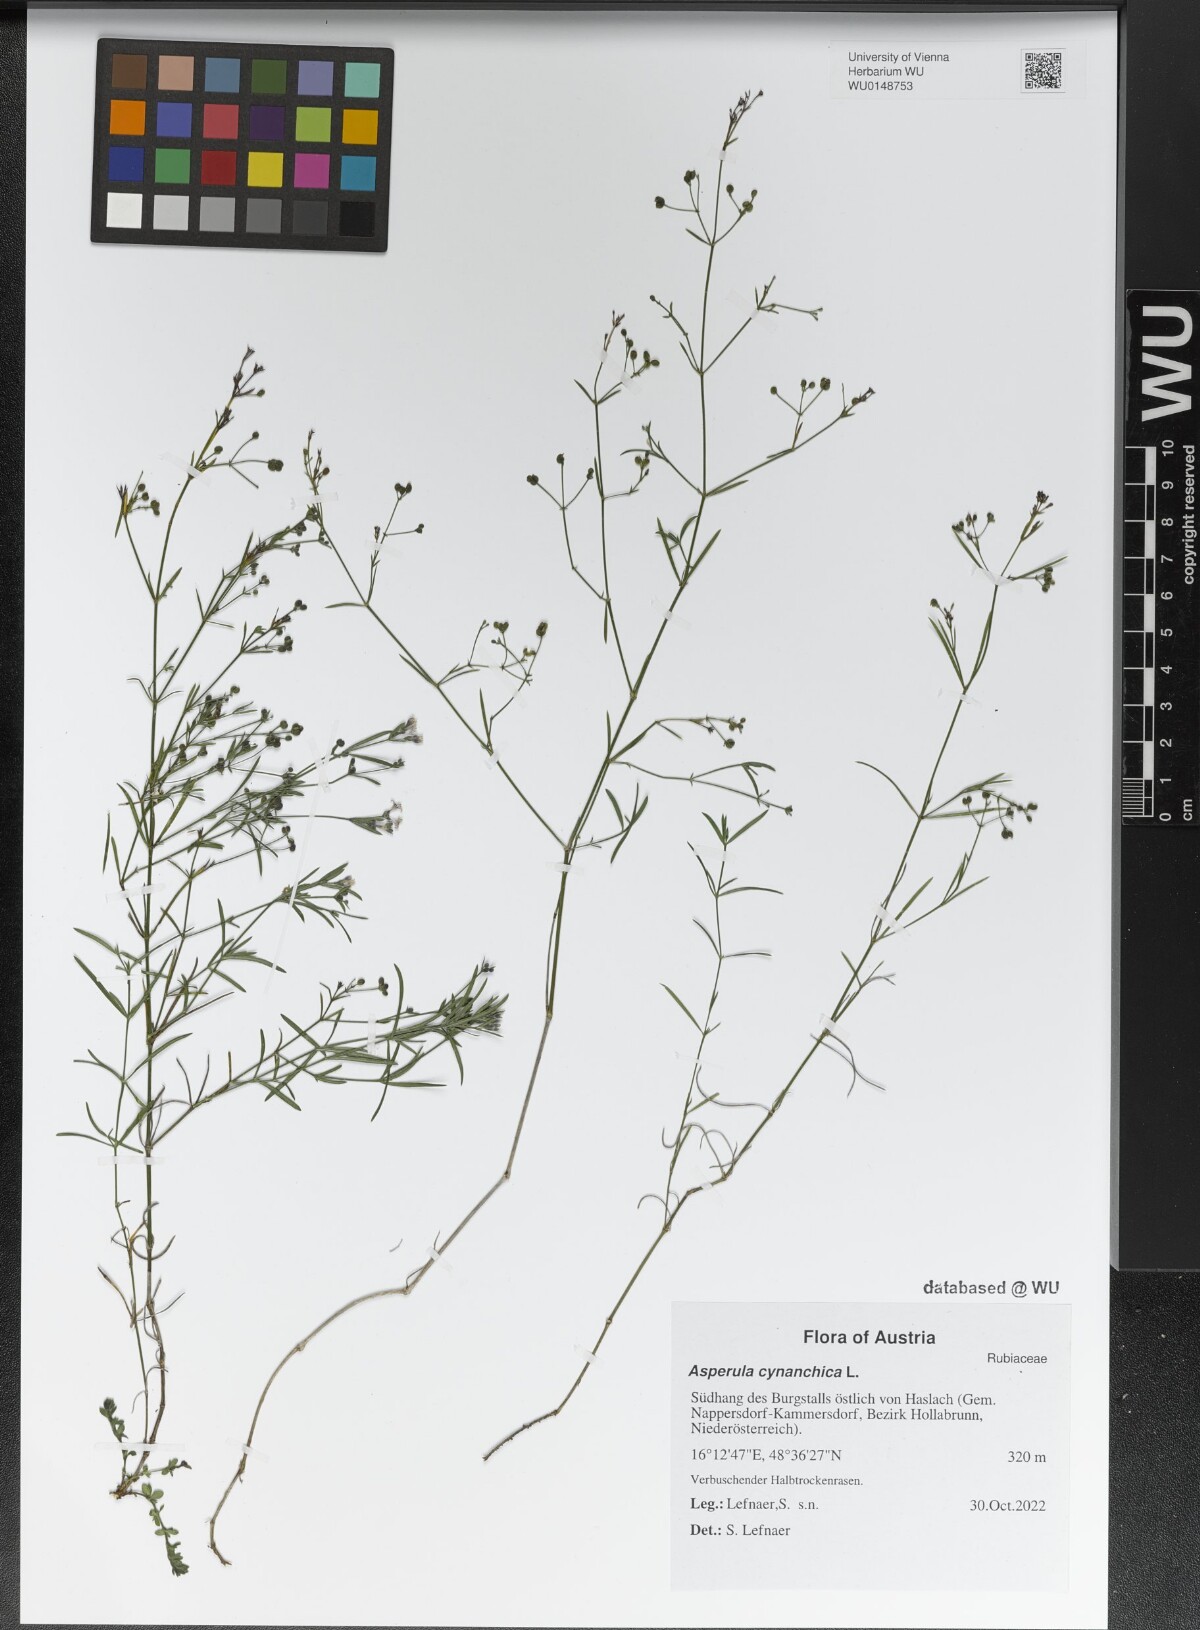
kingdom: Plantae
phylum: Tracheophyta
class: Magnoliopsida
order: Gentianales
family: Rubiaceae
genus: Cynanchica
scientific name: Cynanchica pyrenaica
